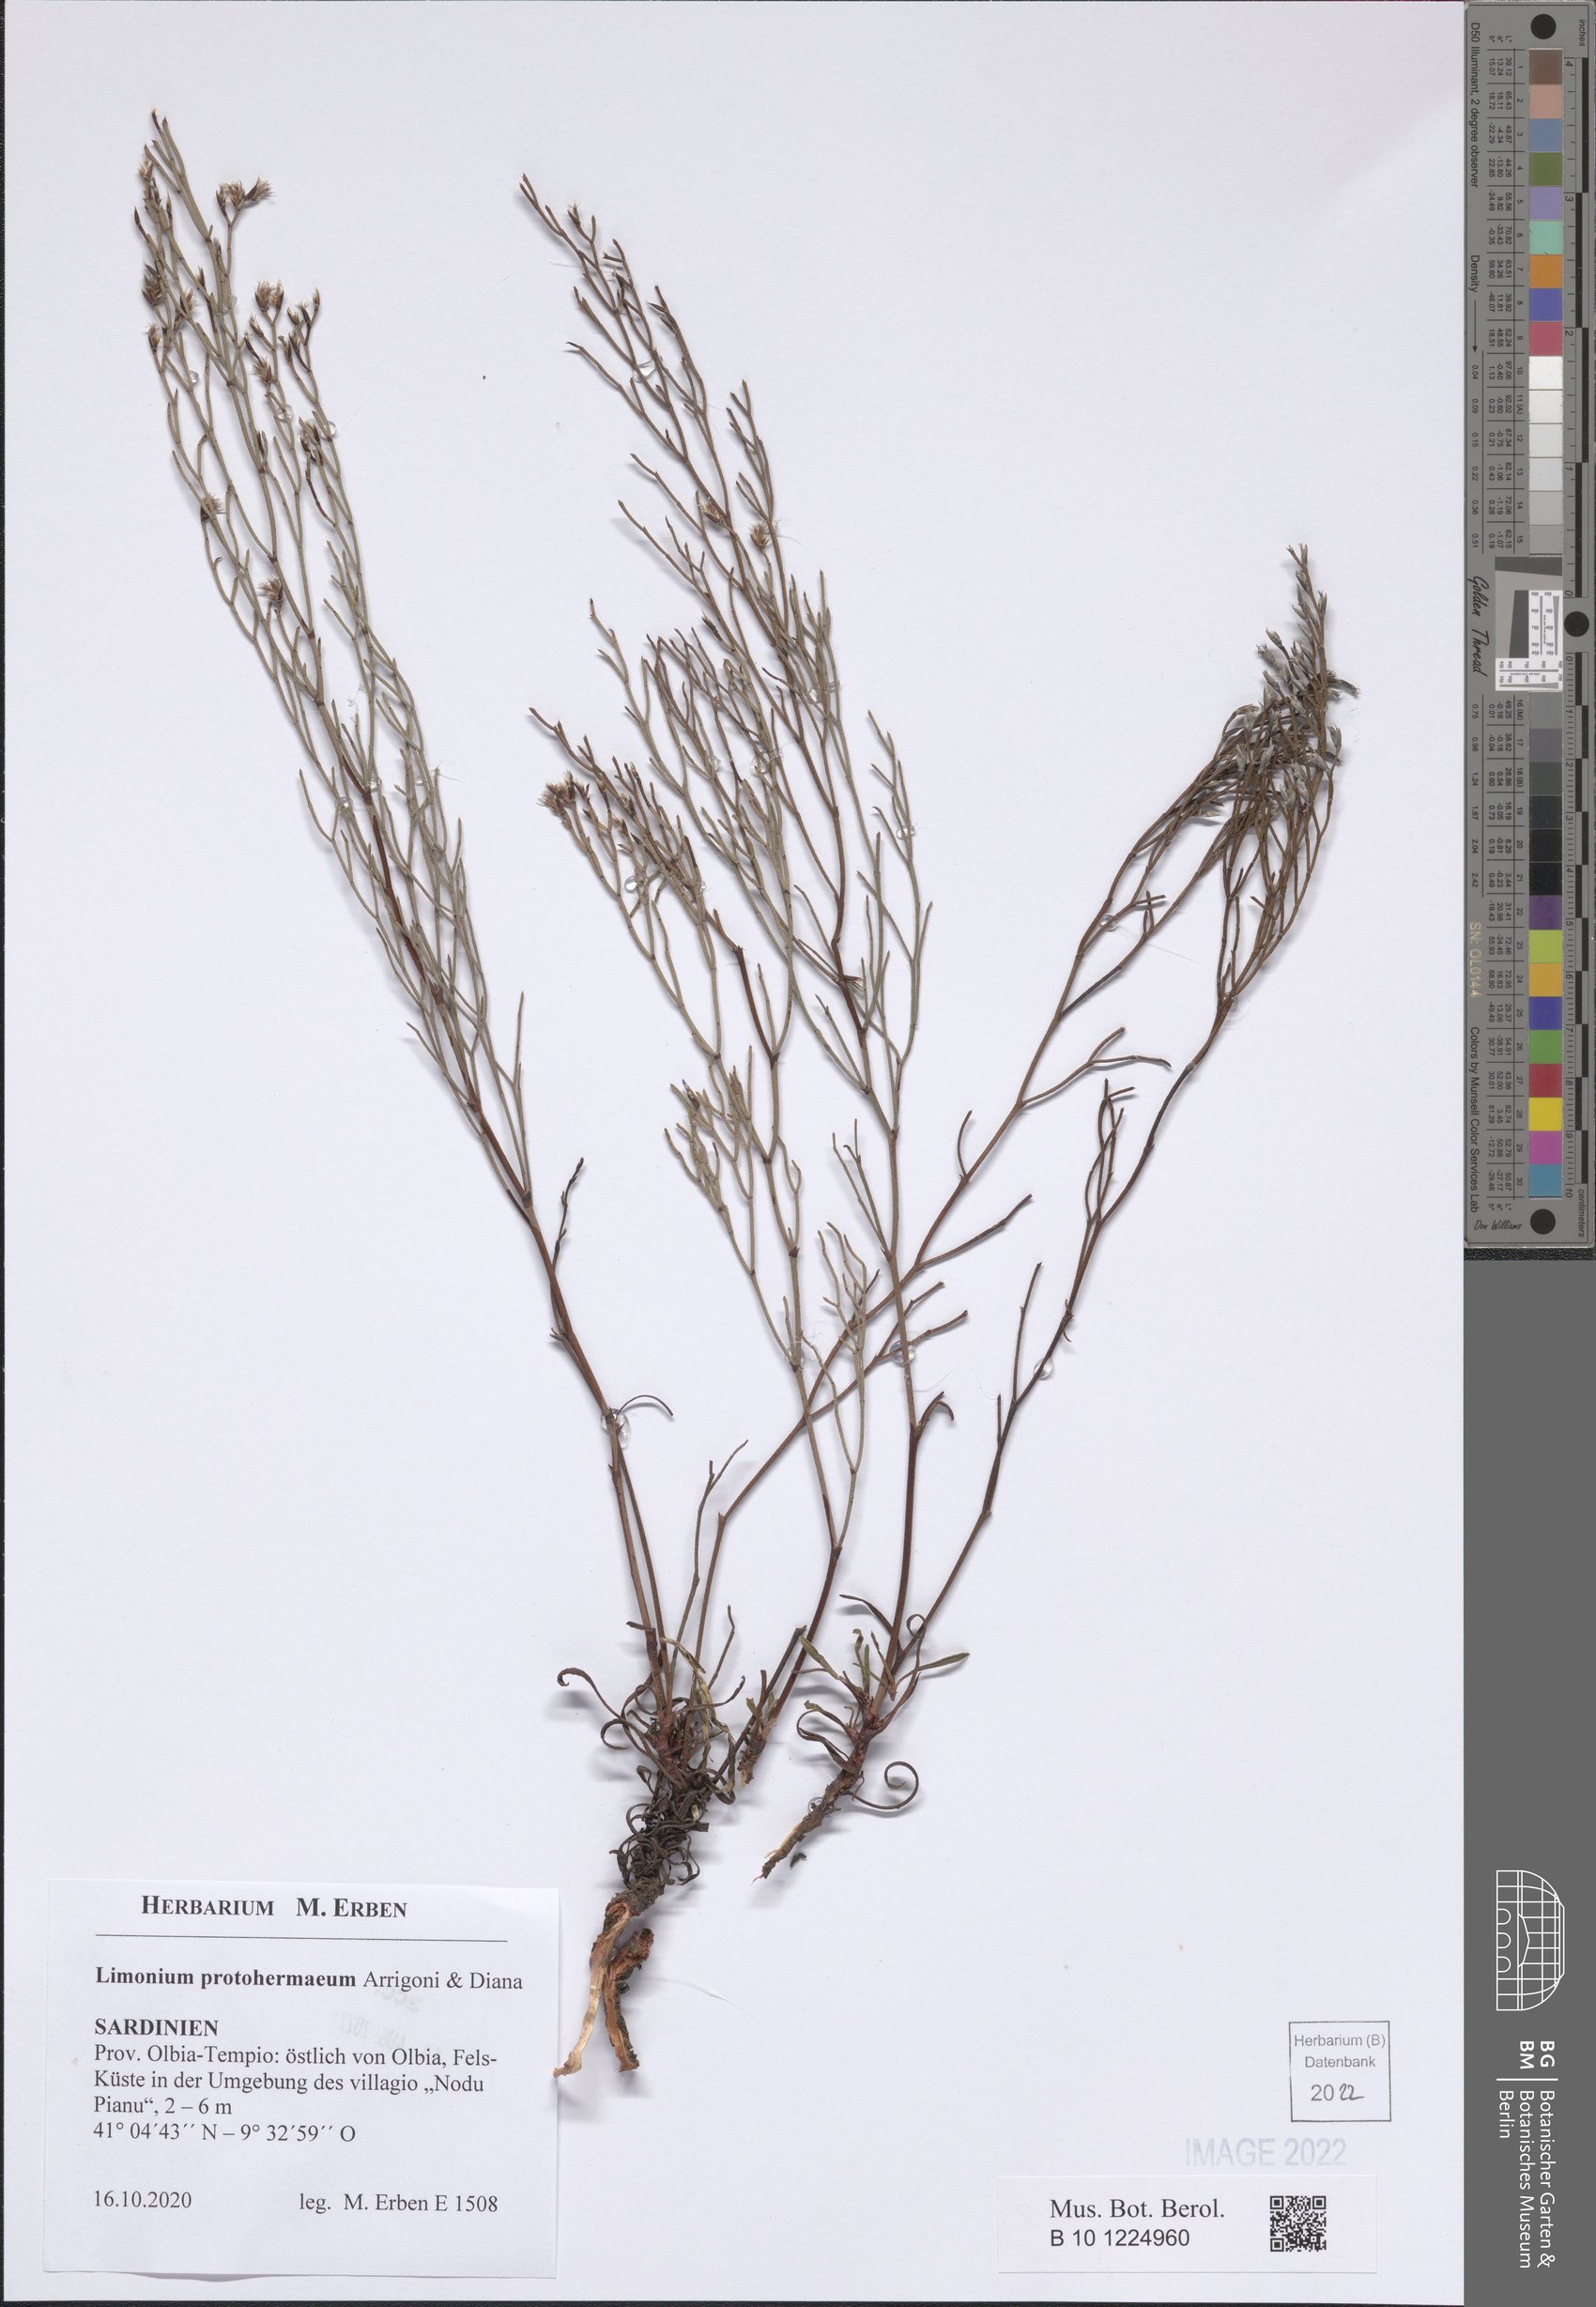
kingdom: Plantae
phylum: Tracheophyta
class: Magnoliopsida
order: Caryophyllales
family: Plumbaginaceae
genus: Limonium
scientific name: Limonium protohermaeum
